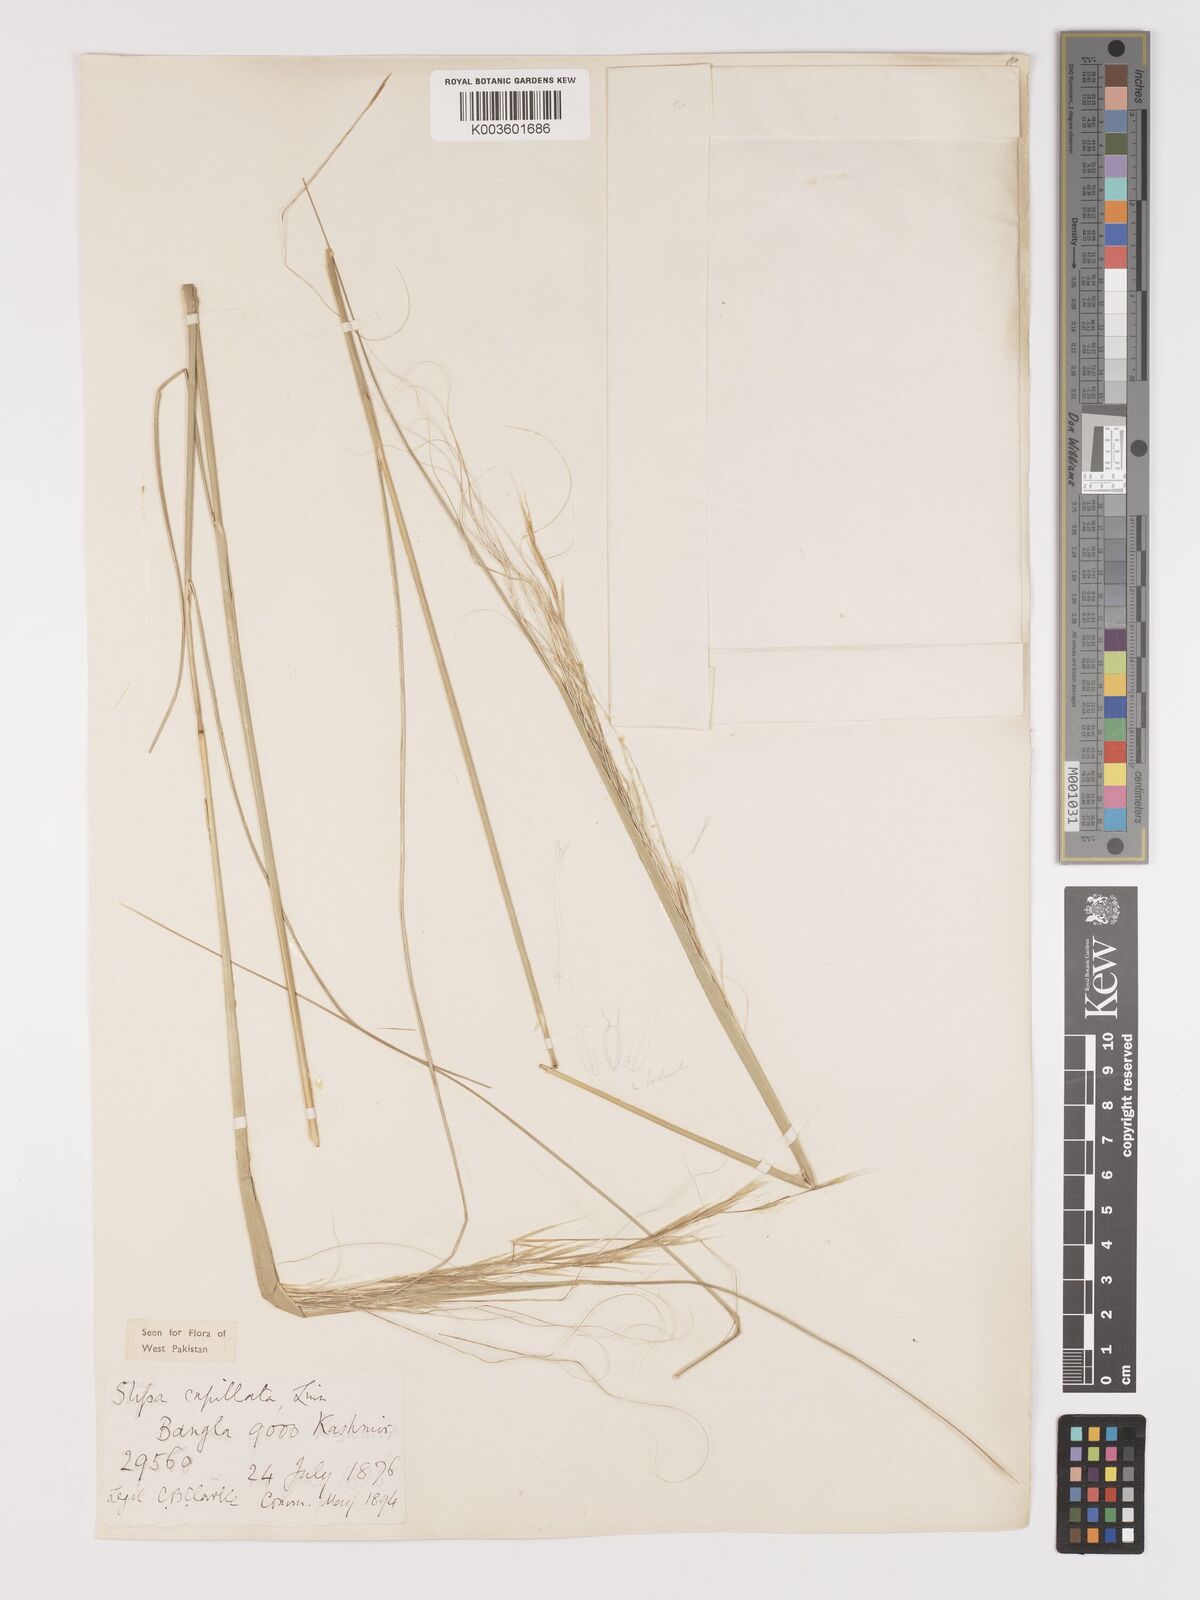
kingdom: Plantae
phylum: Tracheophyta
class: Liliopsida
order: Poales
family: Poaceae
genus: Stipa
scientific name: Stipa capillata
